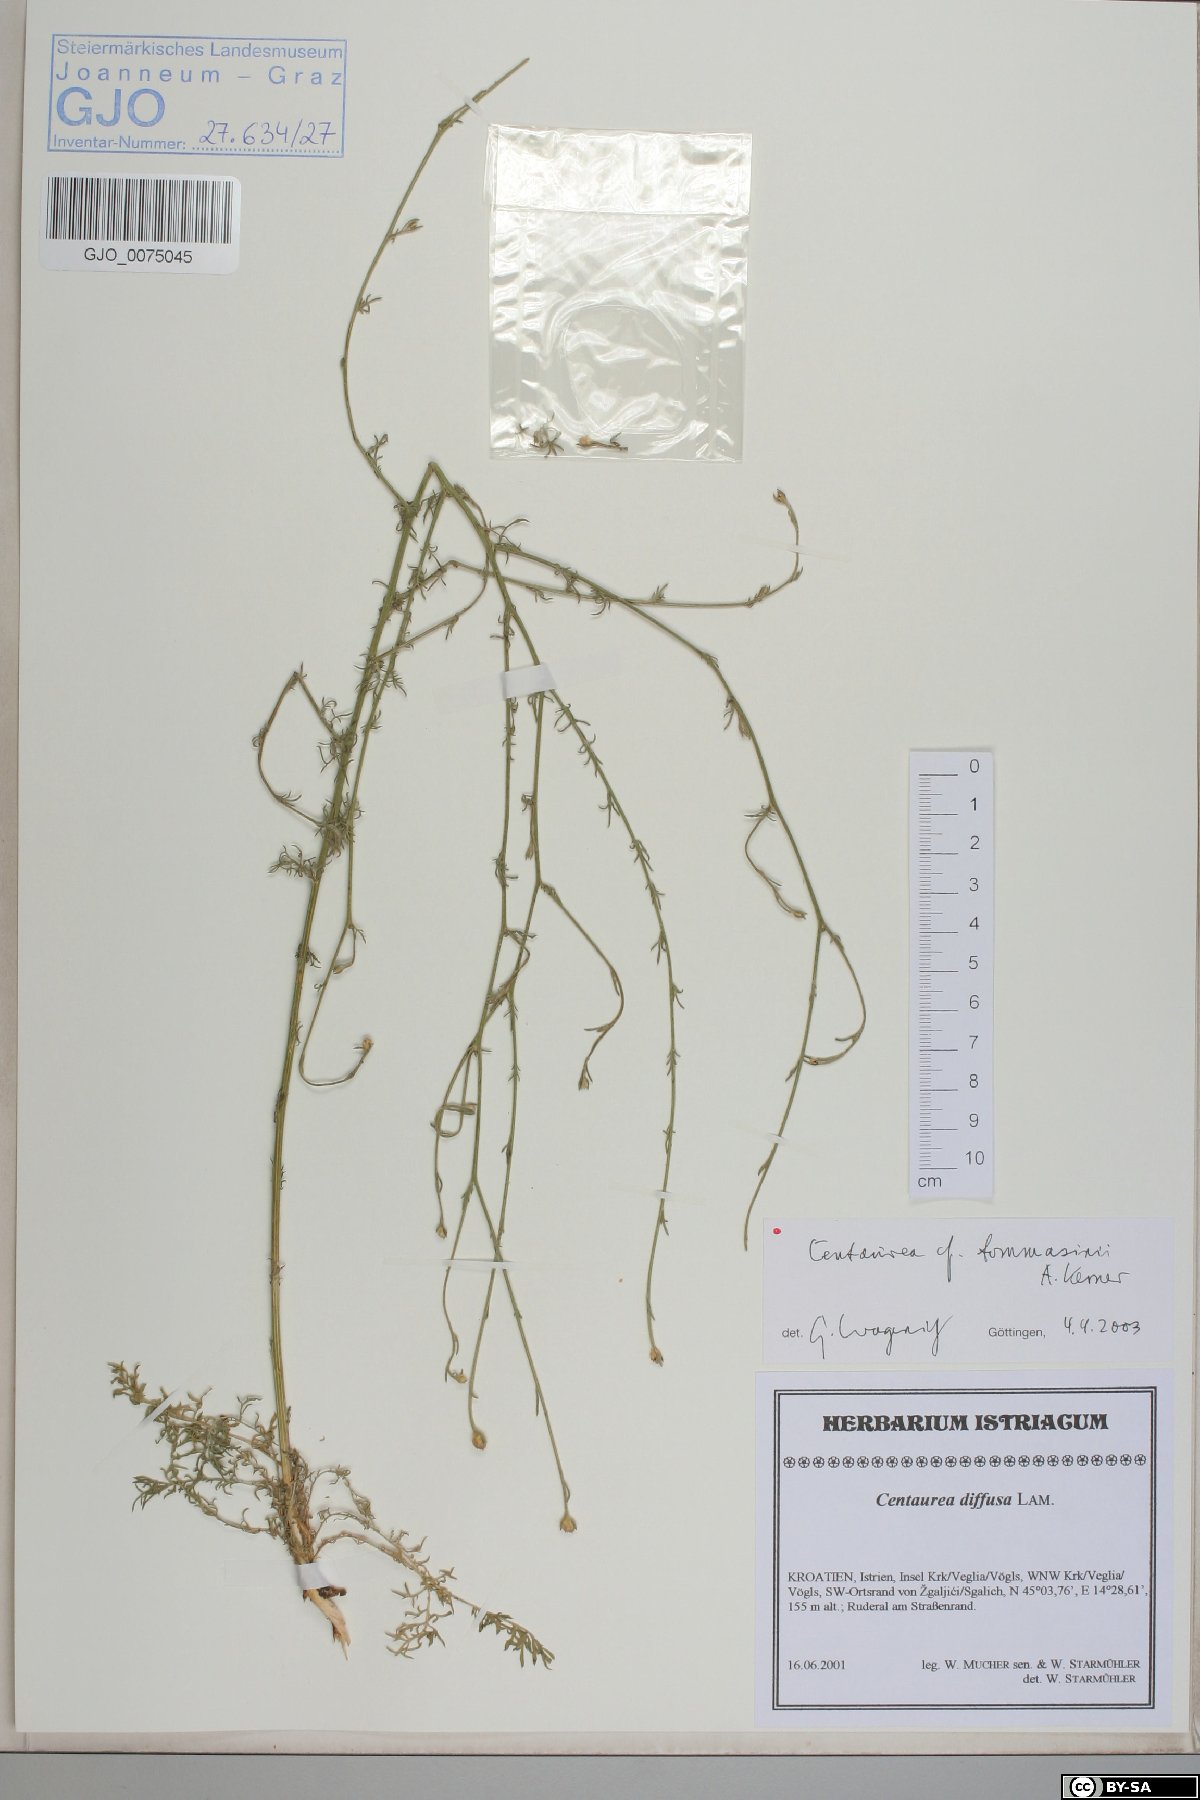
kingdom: Plantae
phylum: Tracheophyta
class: Magnoliopsida
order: Asterales
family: Asteraceae
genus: Centaurea
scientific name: Centaurea tommasinii
